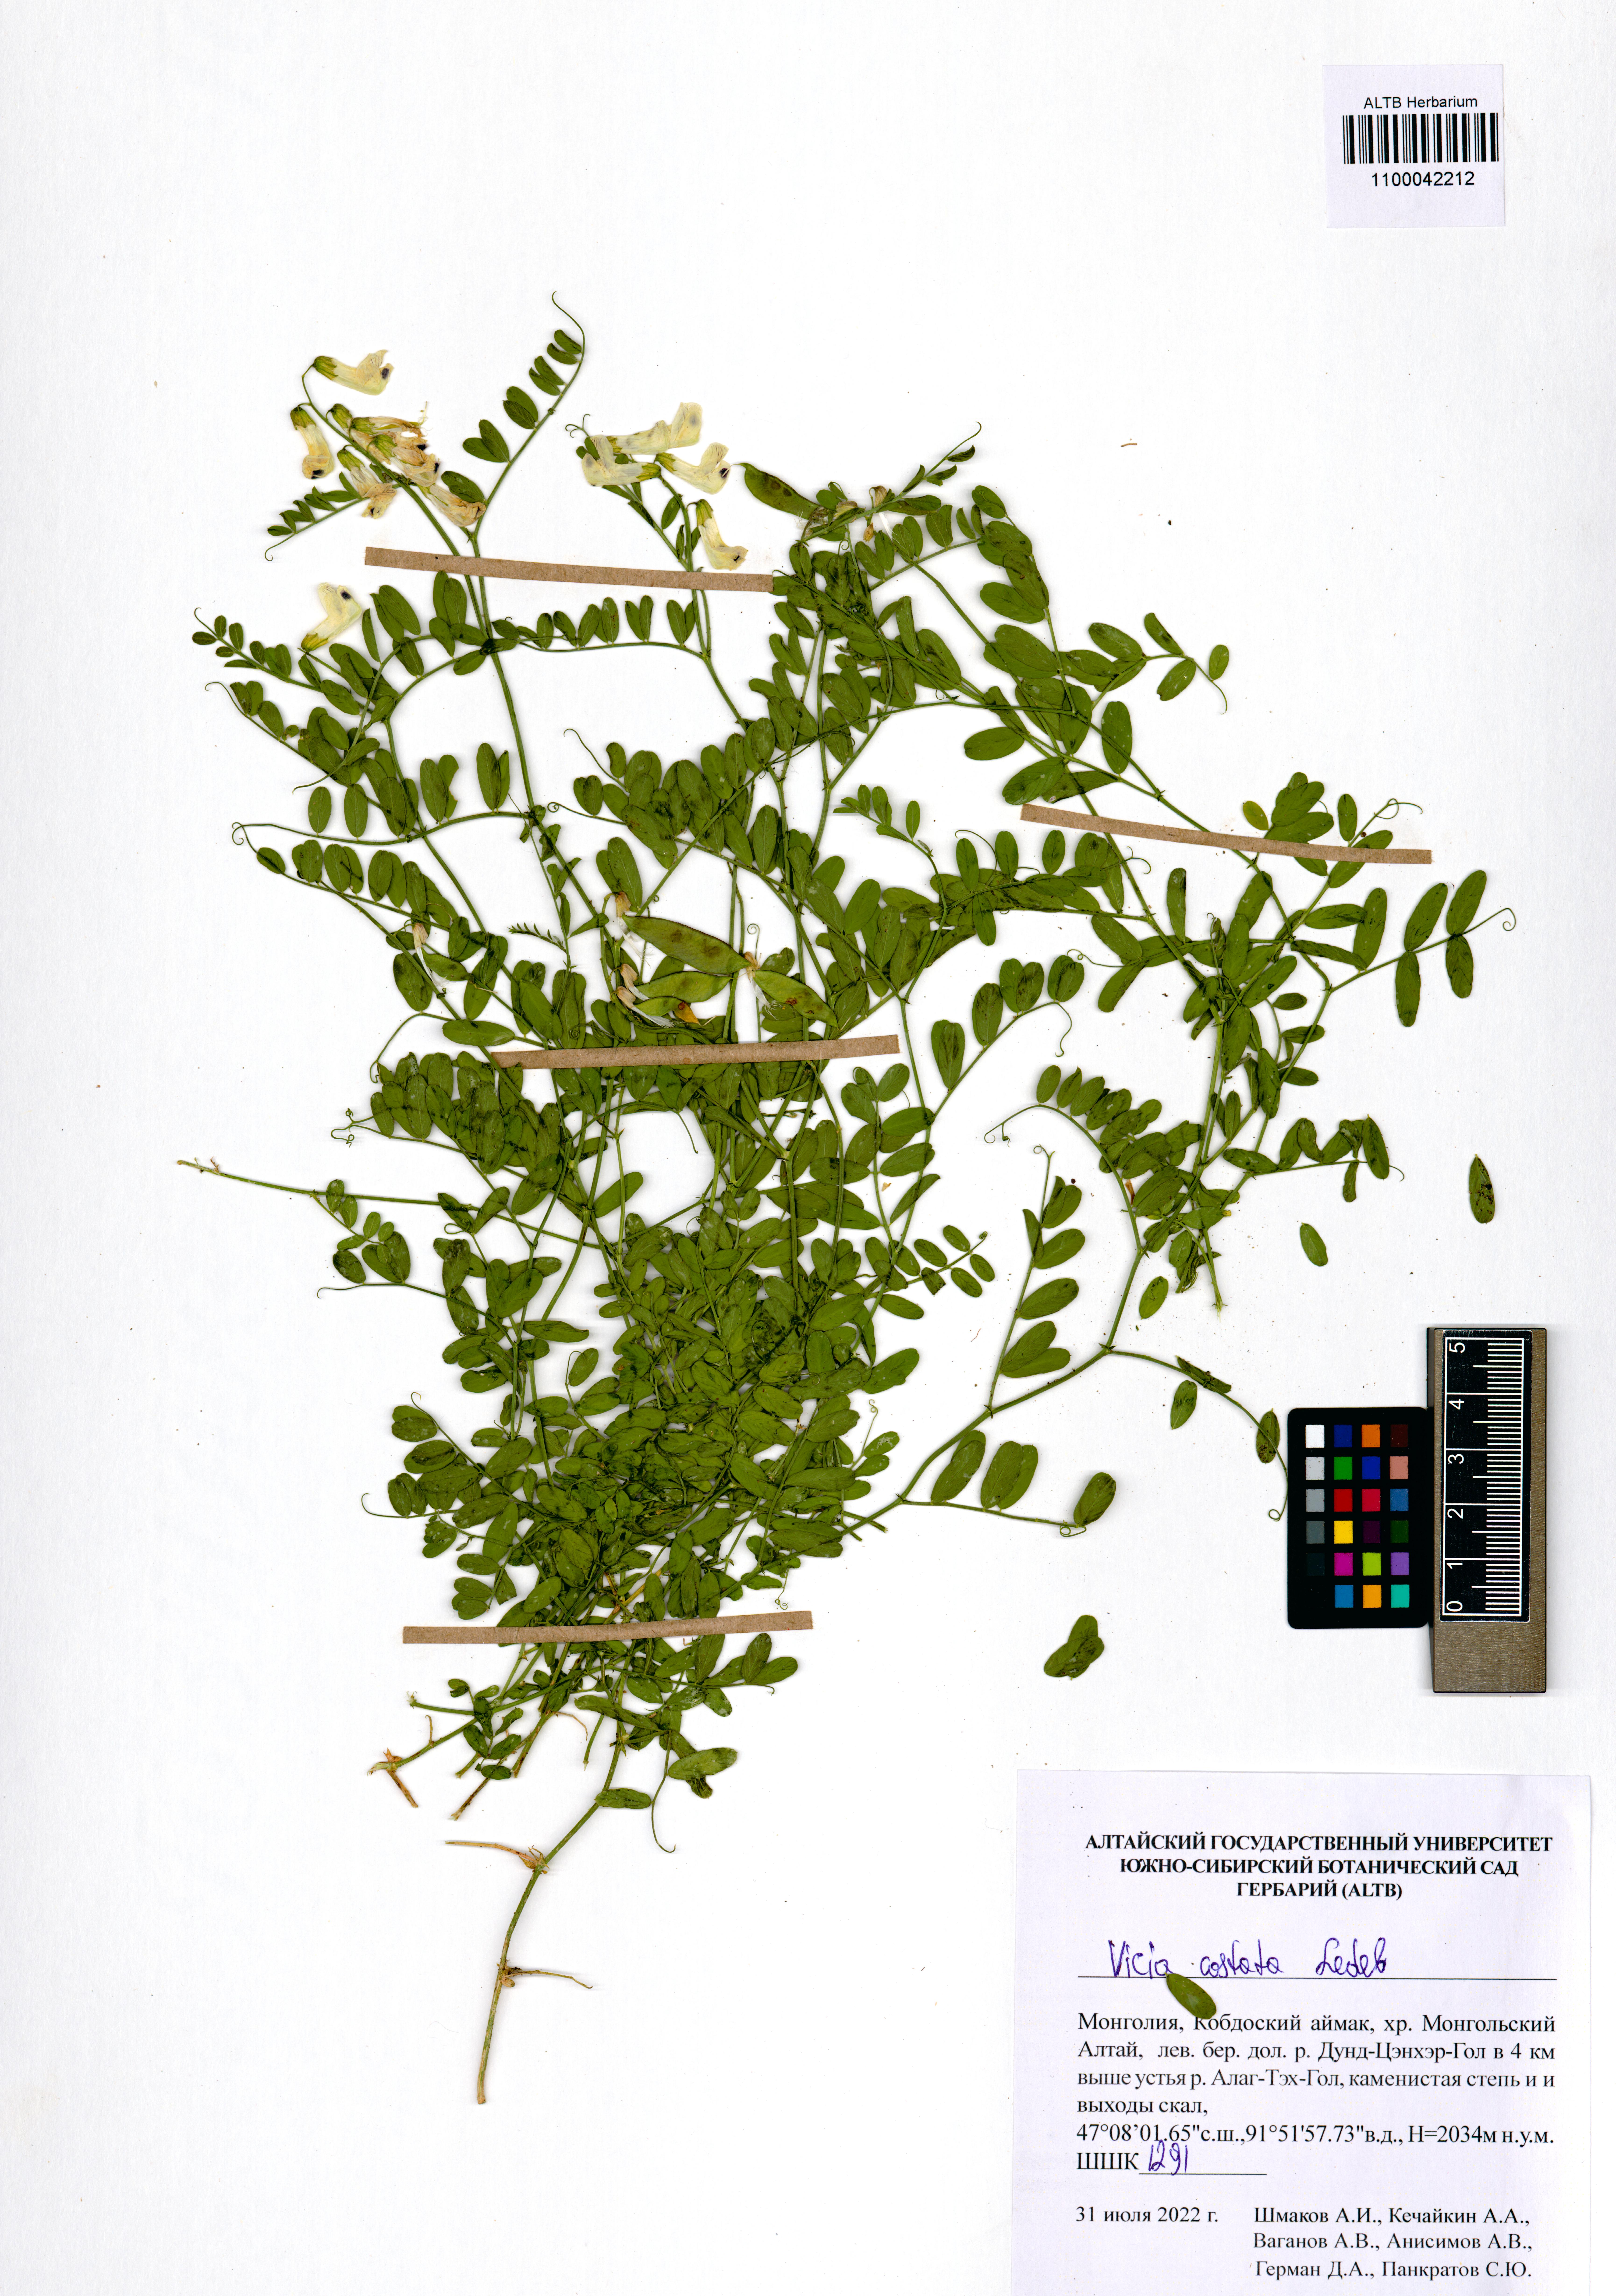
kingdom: Plantae
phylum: Tracheophyta
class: Magnoliopsida
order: Fabales
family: Fabaceae
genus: Vicia
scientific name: Vicia costata
